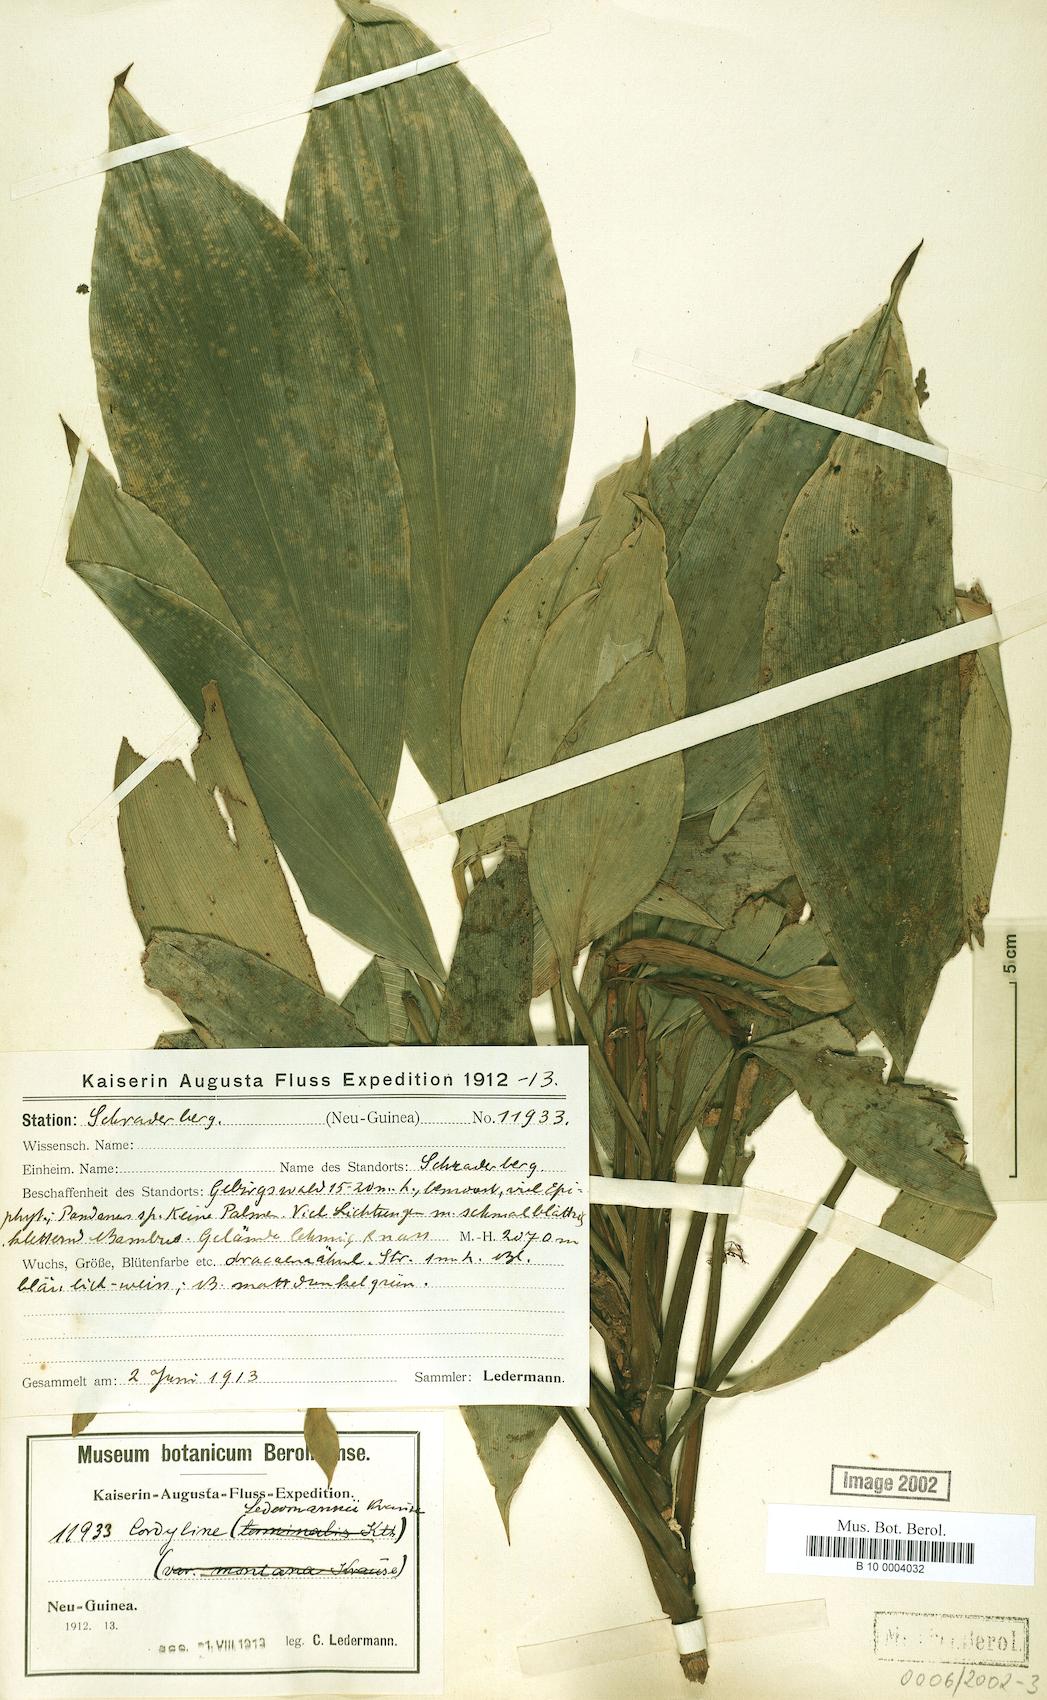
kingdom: Plantae
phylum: Tracheophyta
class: Liliopsida
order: Asparagales
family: Asparagaceae
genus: Cordyline
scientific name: Cordyline ledermannii
